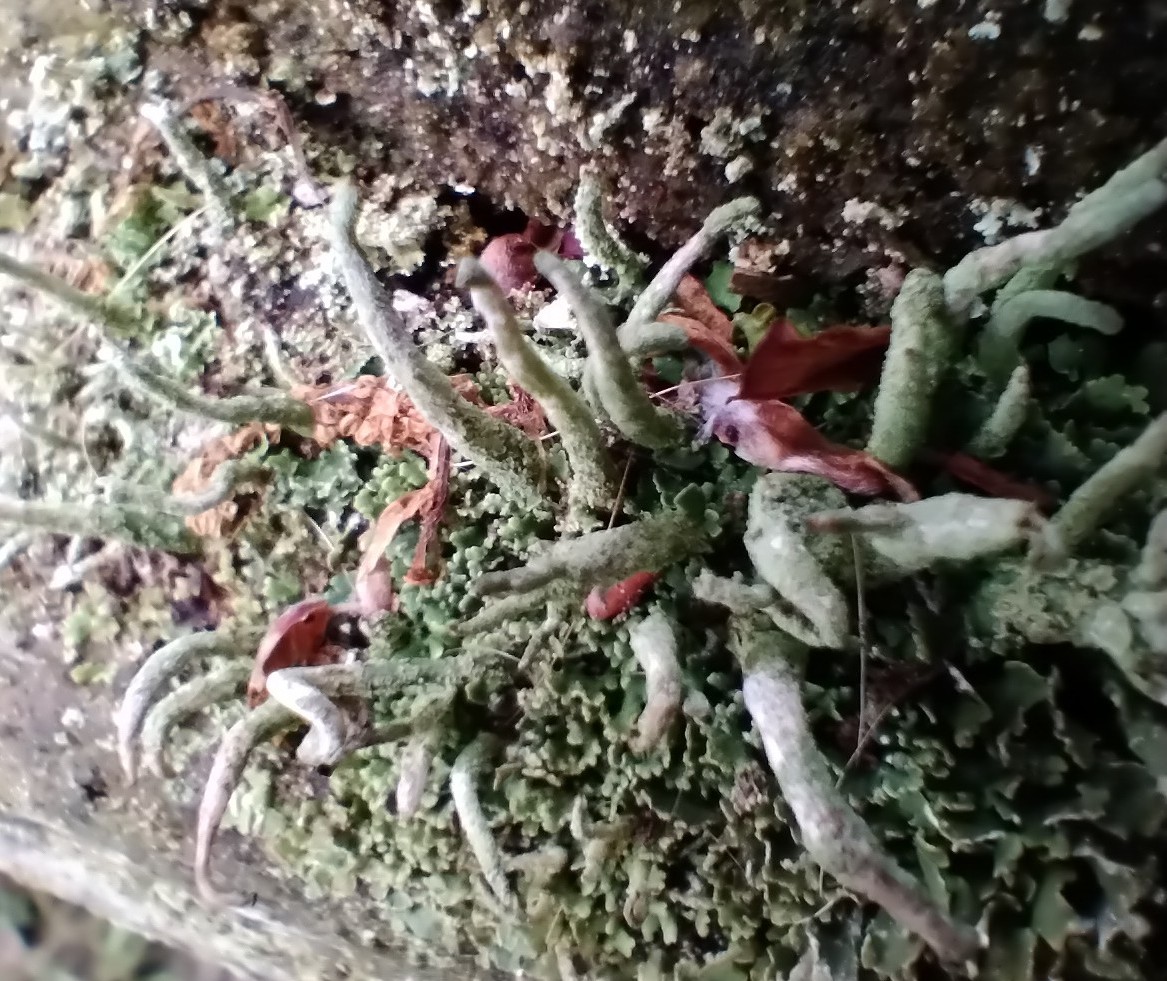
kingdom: Fungi
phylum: Ascomycota
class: Lecanoromycetes
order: Lecanorales
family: Cladoniaceae
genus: Cladonia
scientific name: Cladonia coniocraea
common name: træfods-bægerlav
